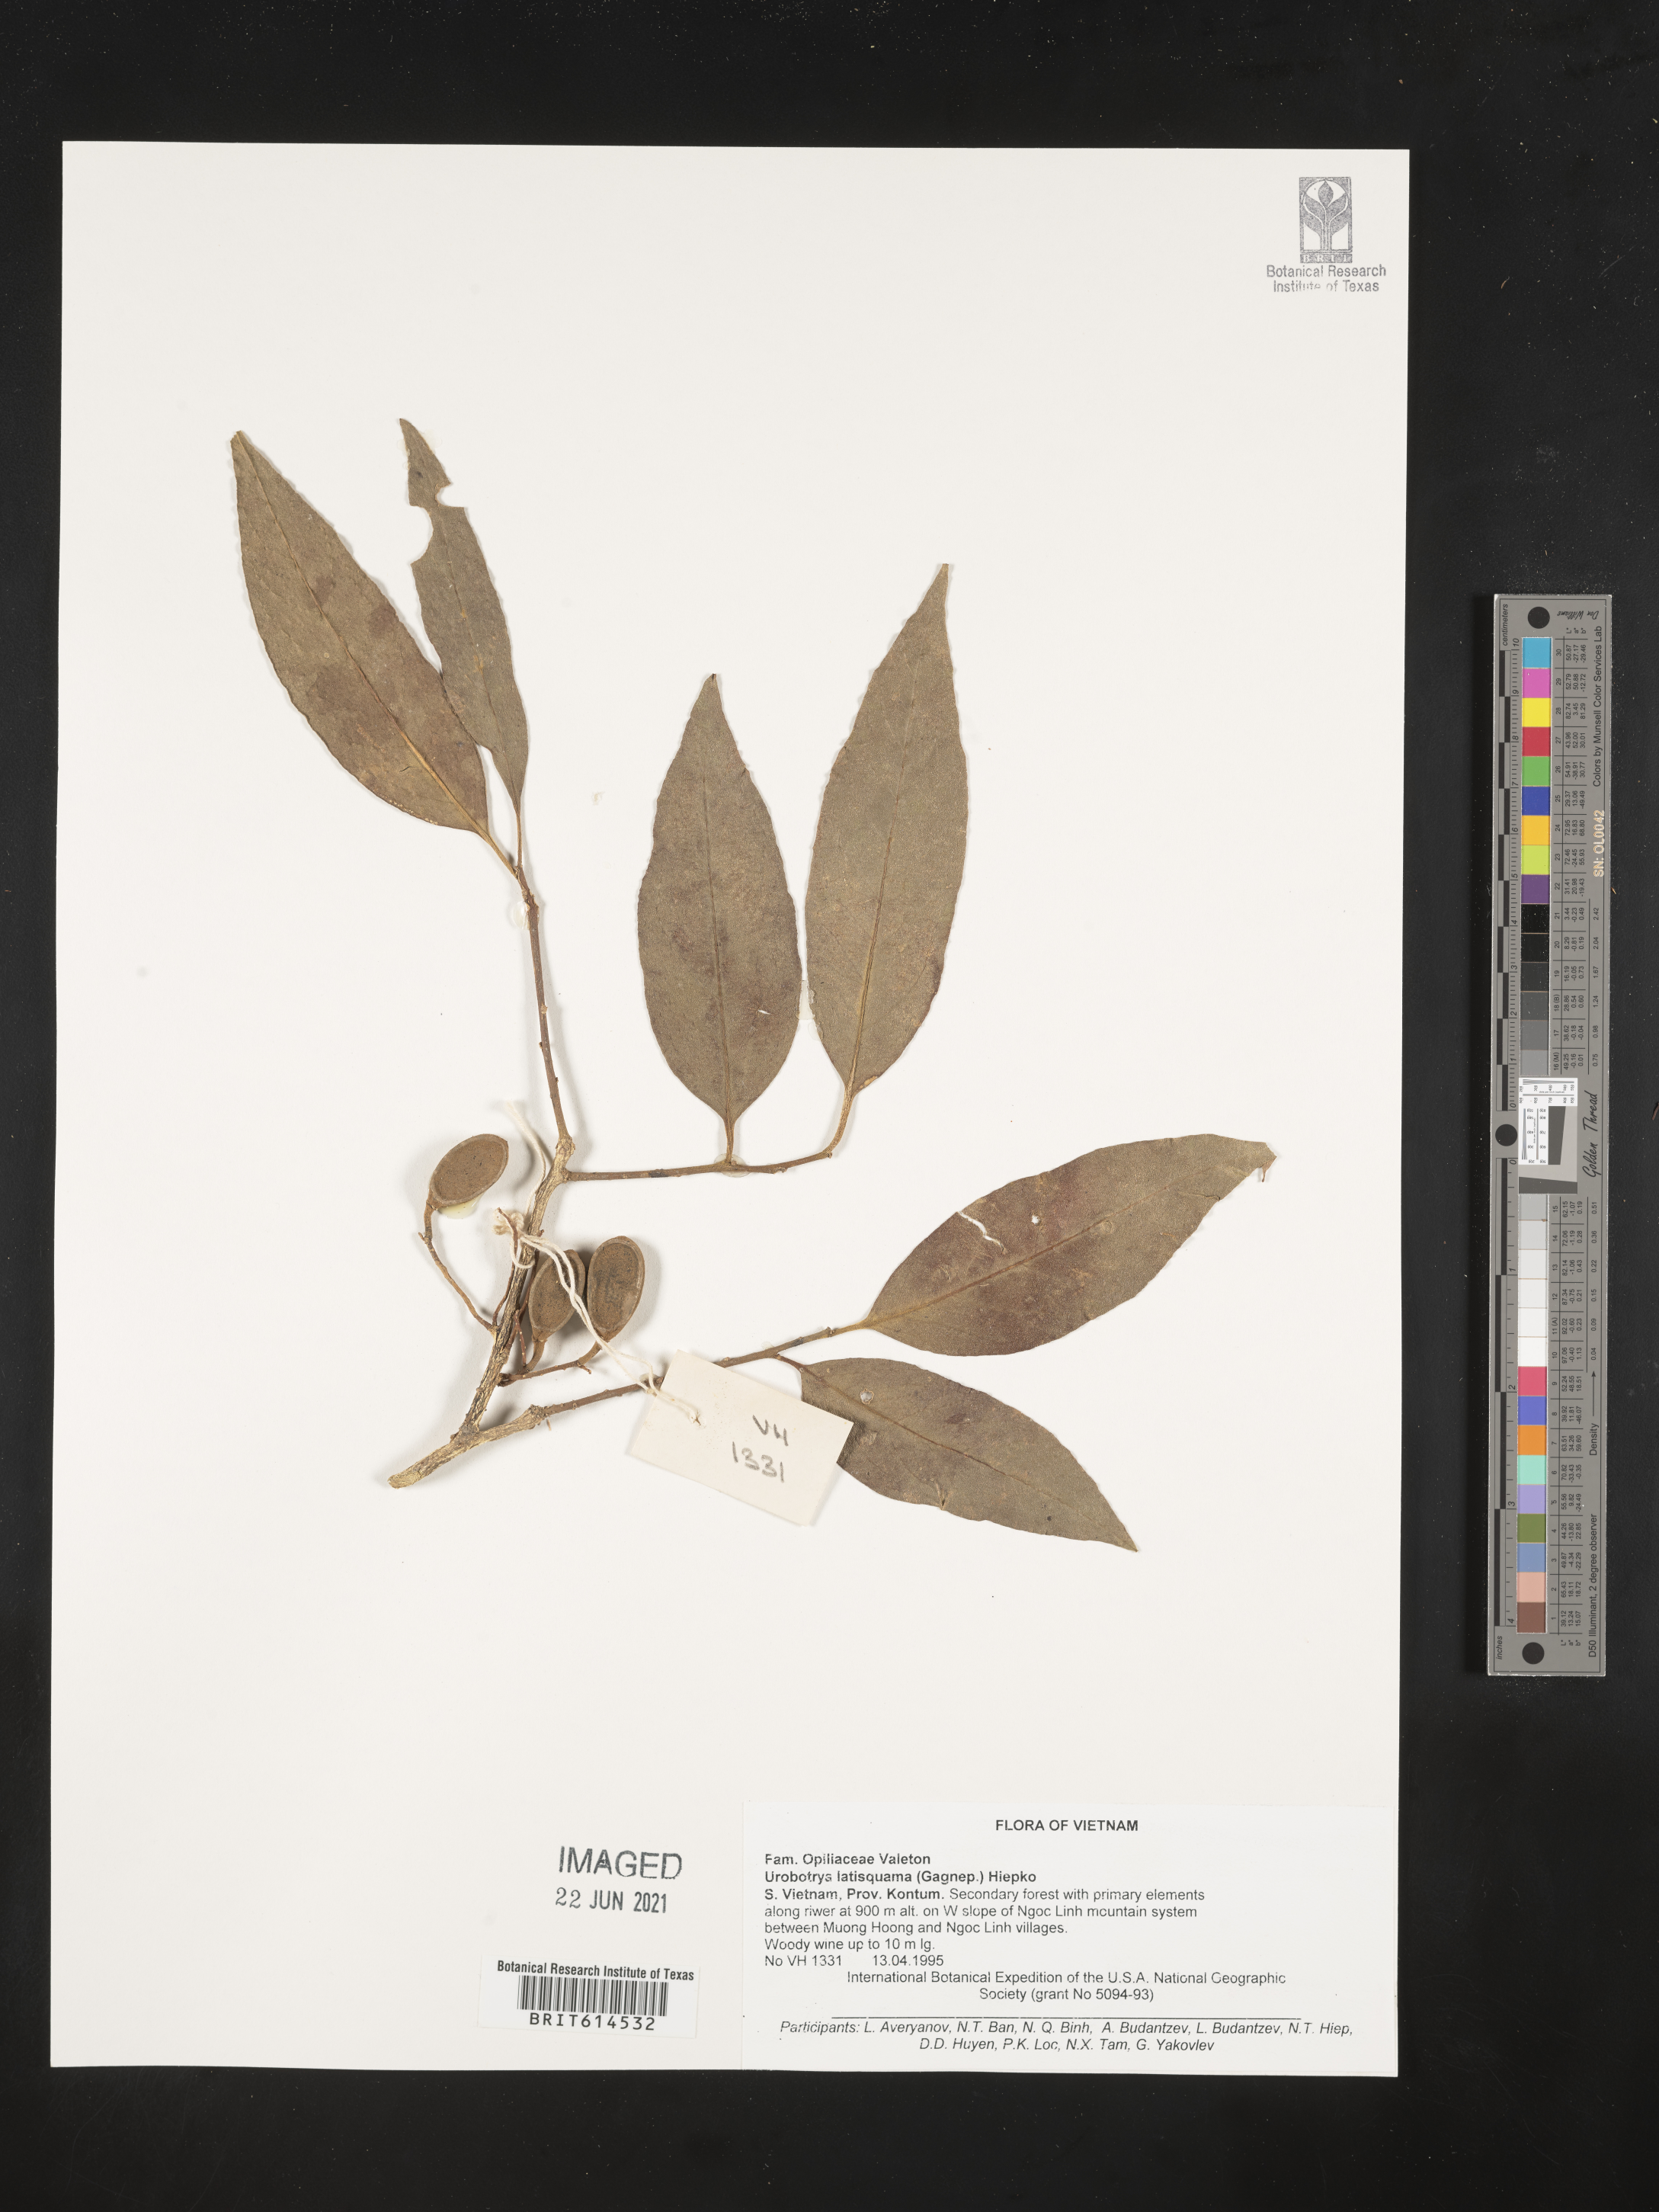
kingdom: Plantae
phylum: Tracheophyta
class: Magnoliopsida
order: Santalales
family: Opiliaceae
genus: Urobotrya
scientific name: Urobotrya latisquama
